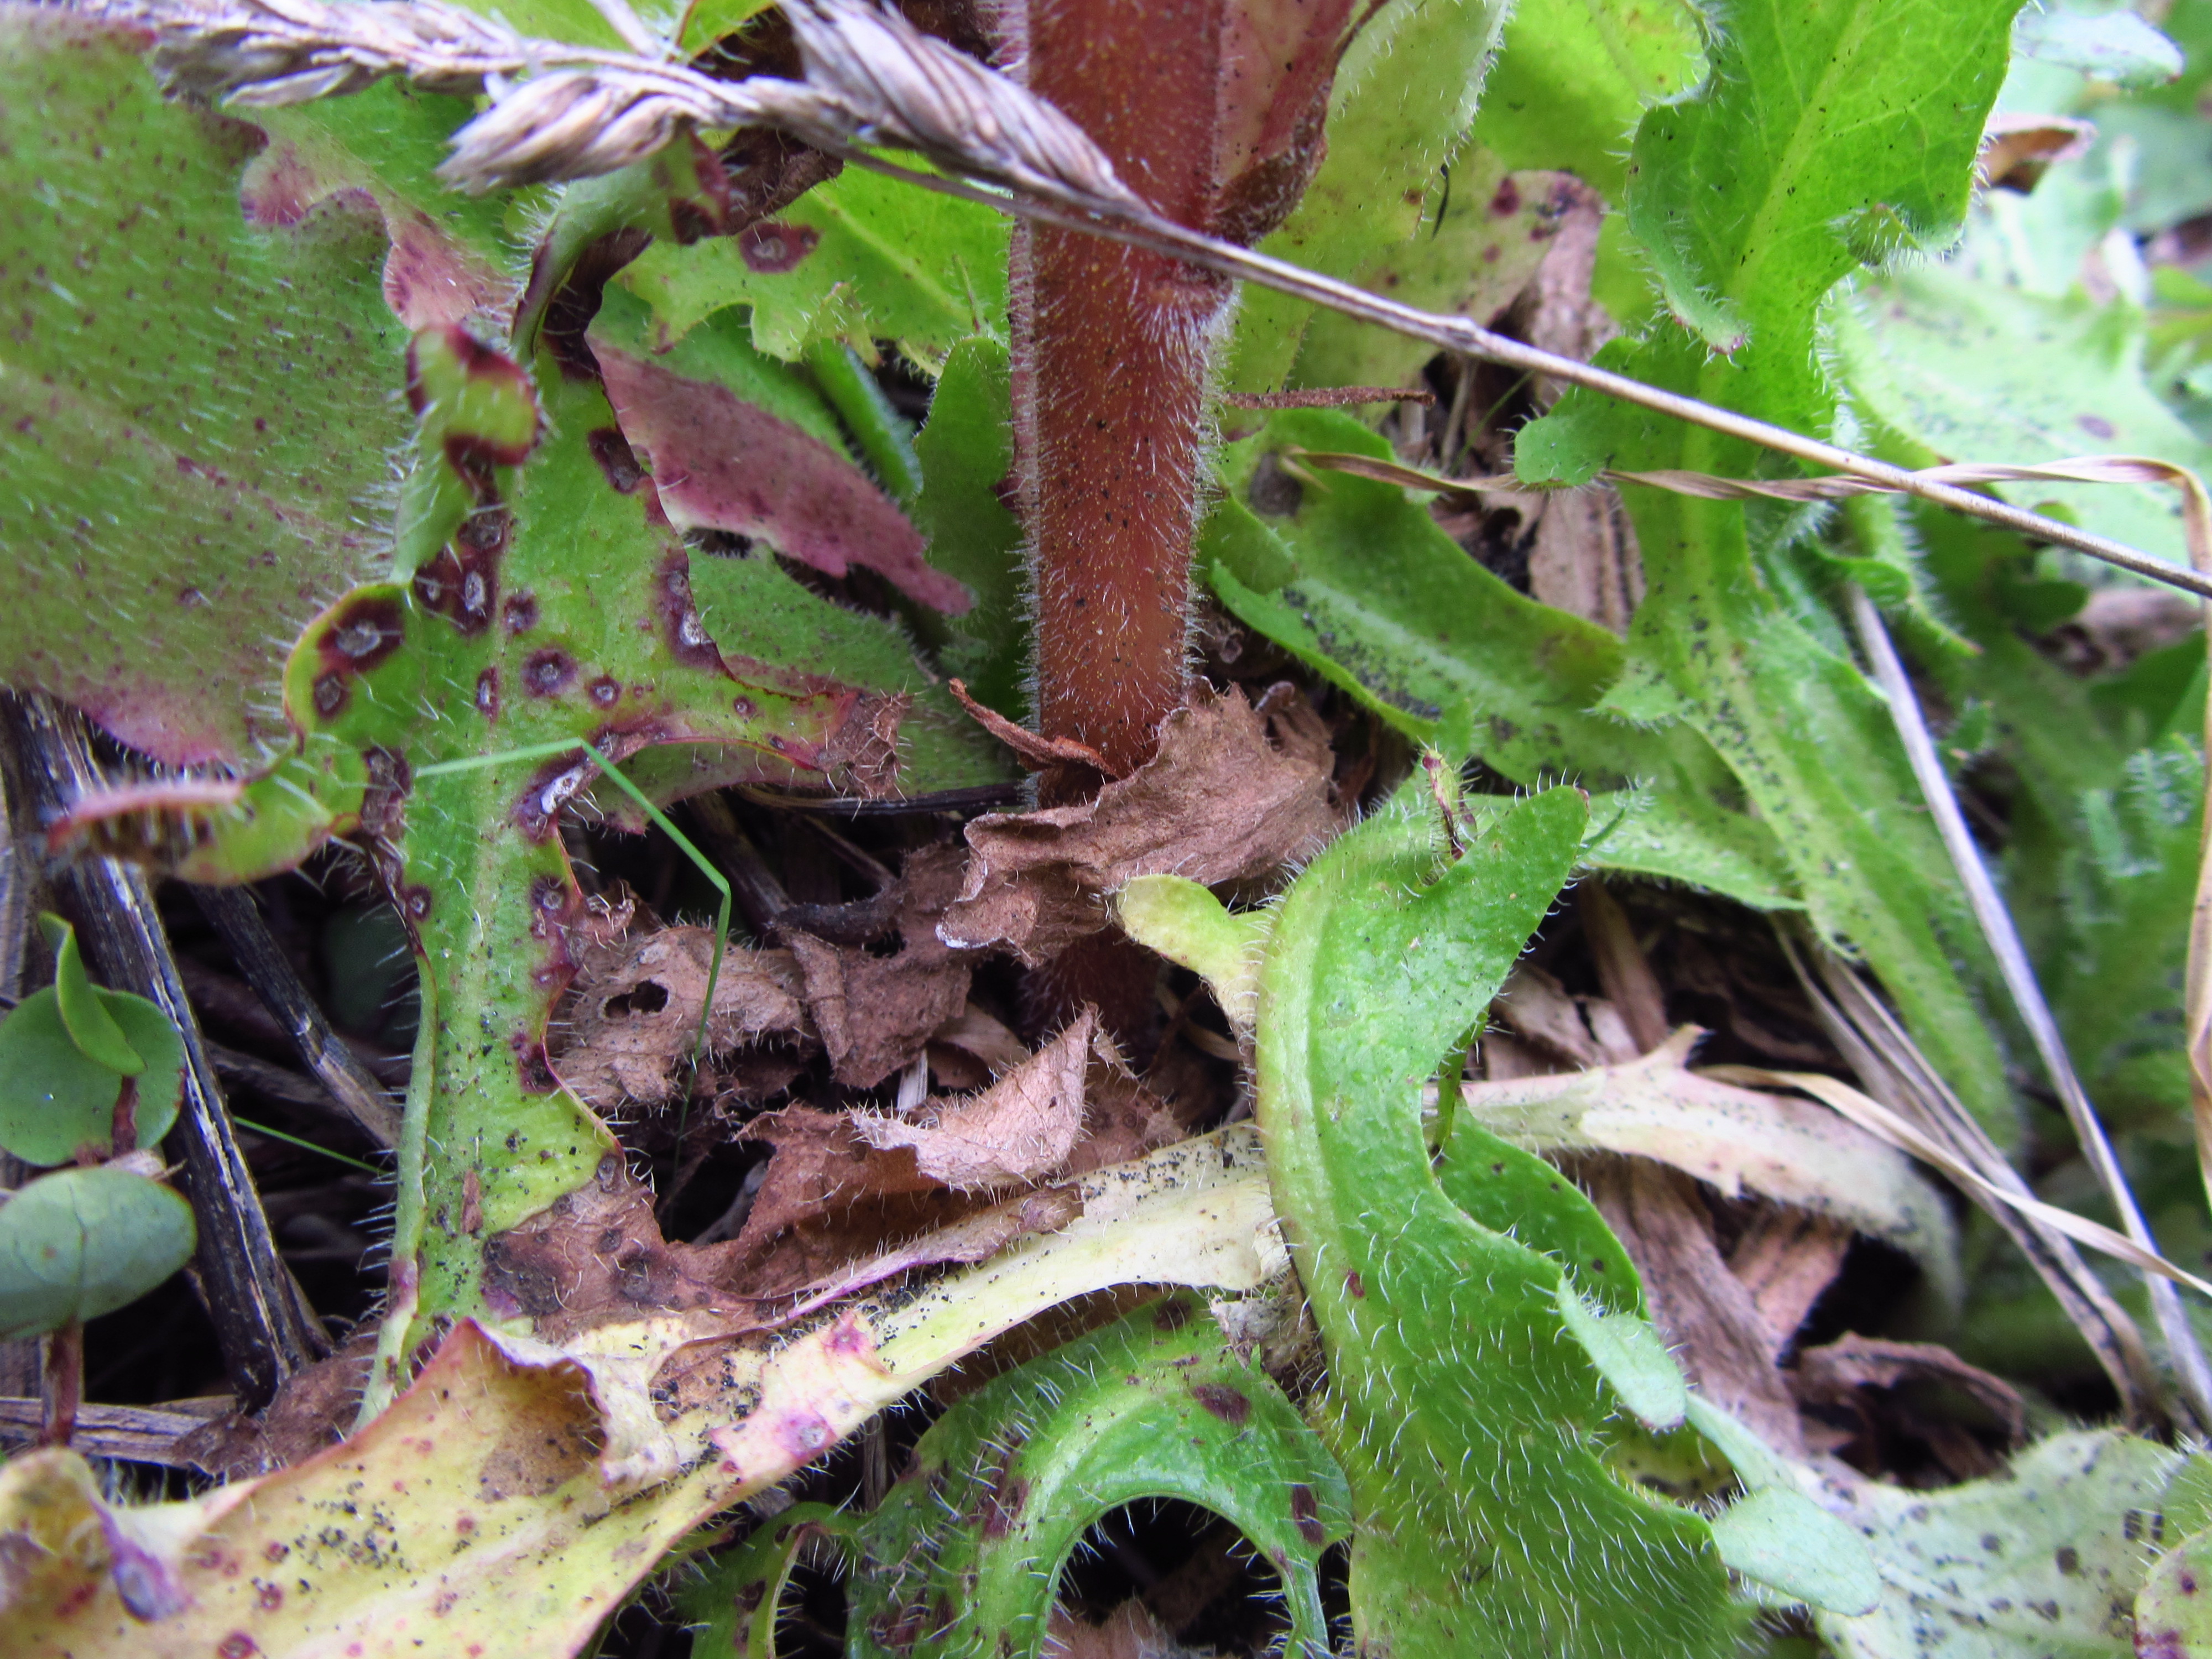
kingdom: Plantae
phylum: Tracheophyta
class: Magnoliopsida
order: Lamiales
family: Orobanchaceae
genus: Orobanche
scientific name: Orobanche minor
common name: Common broomrape
